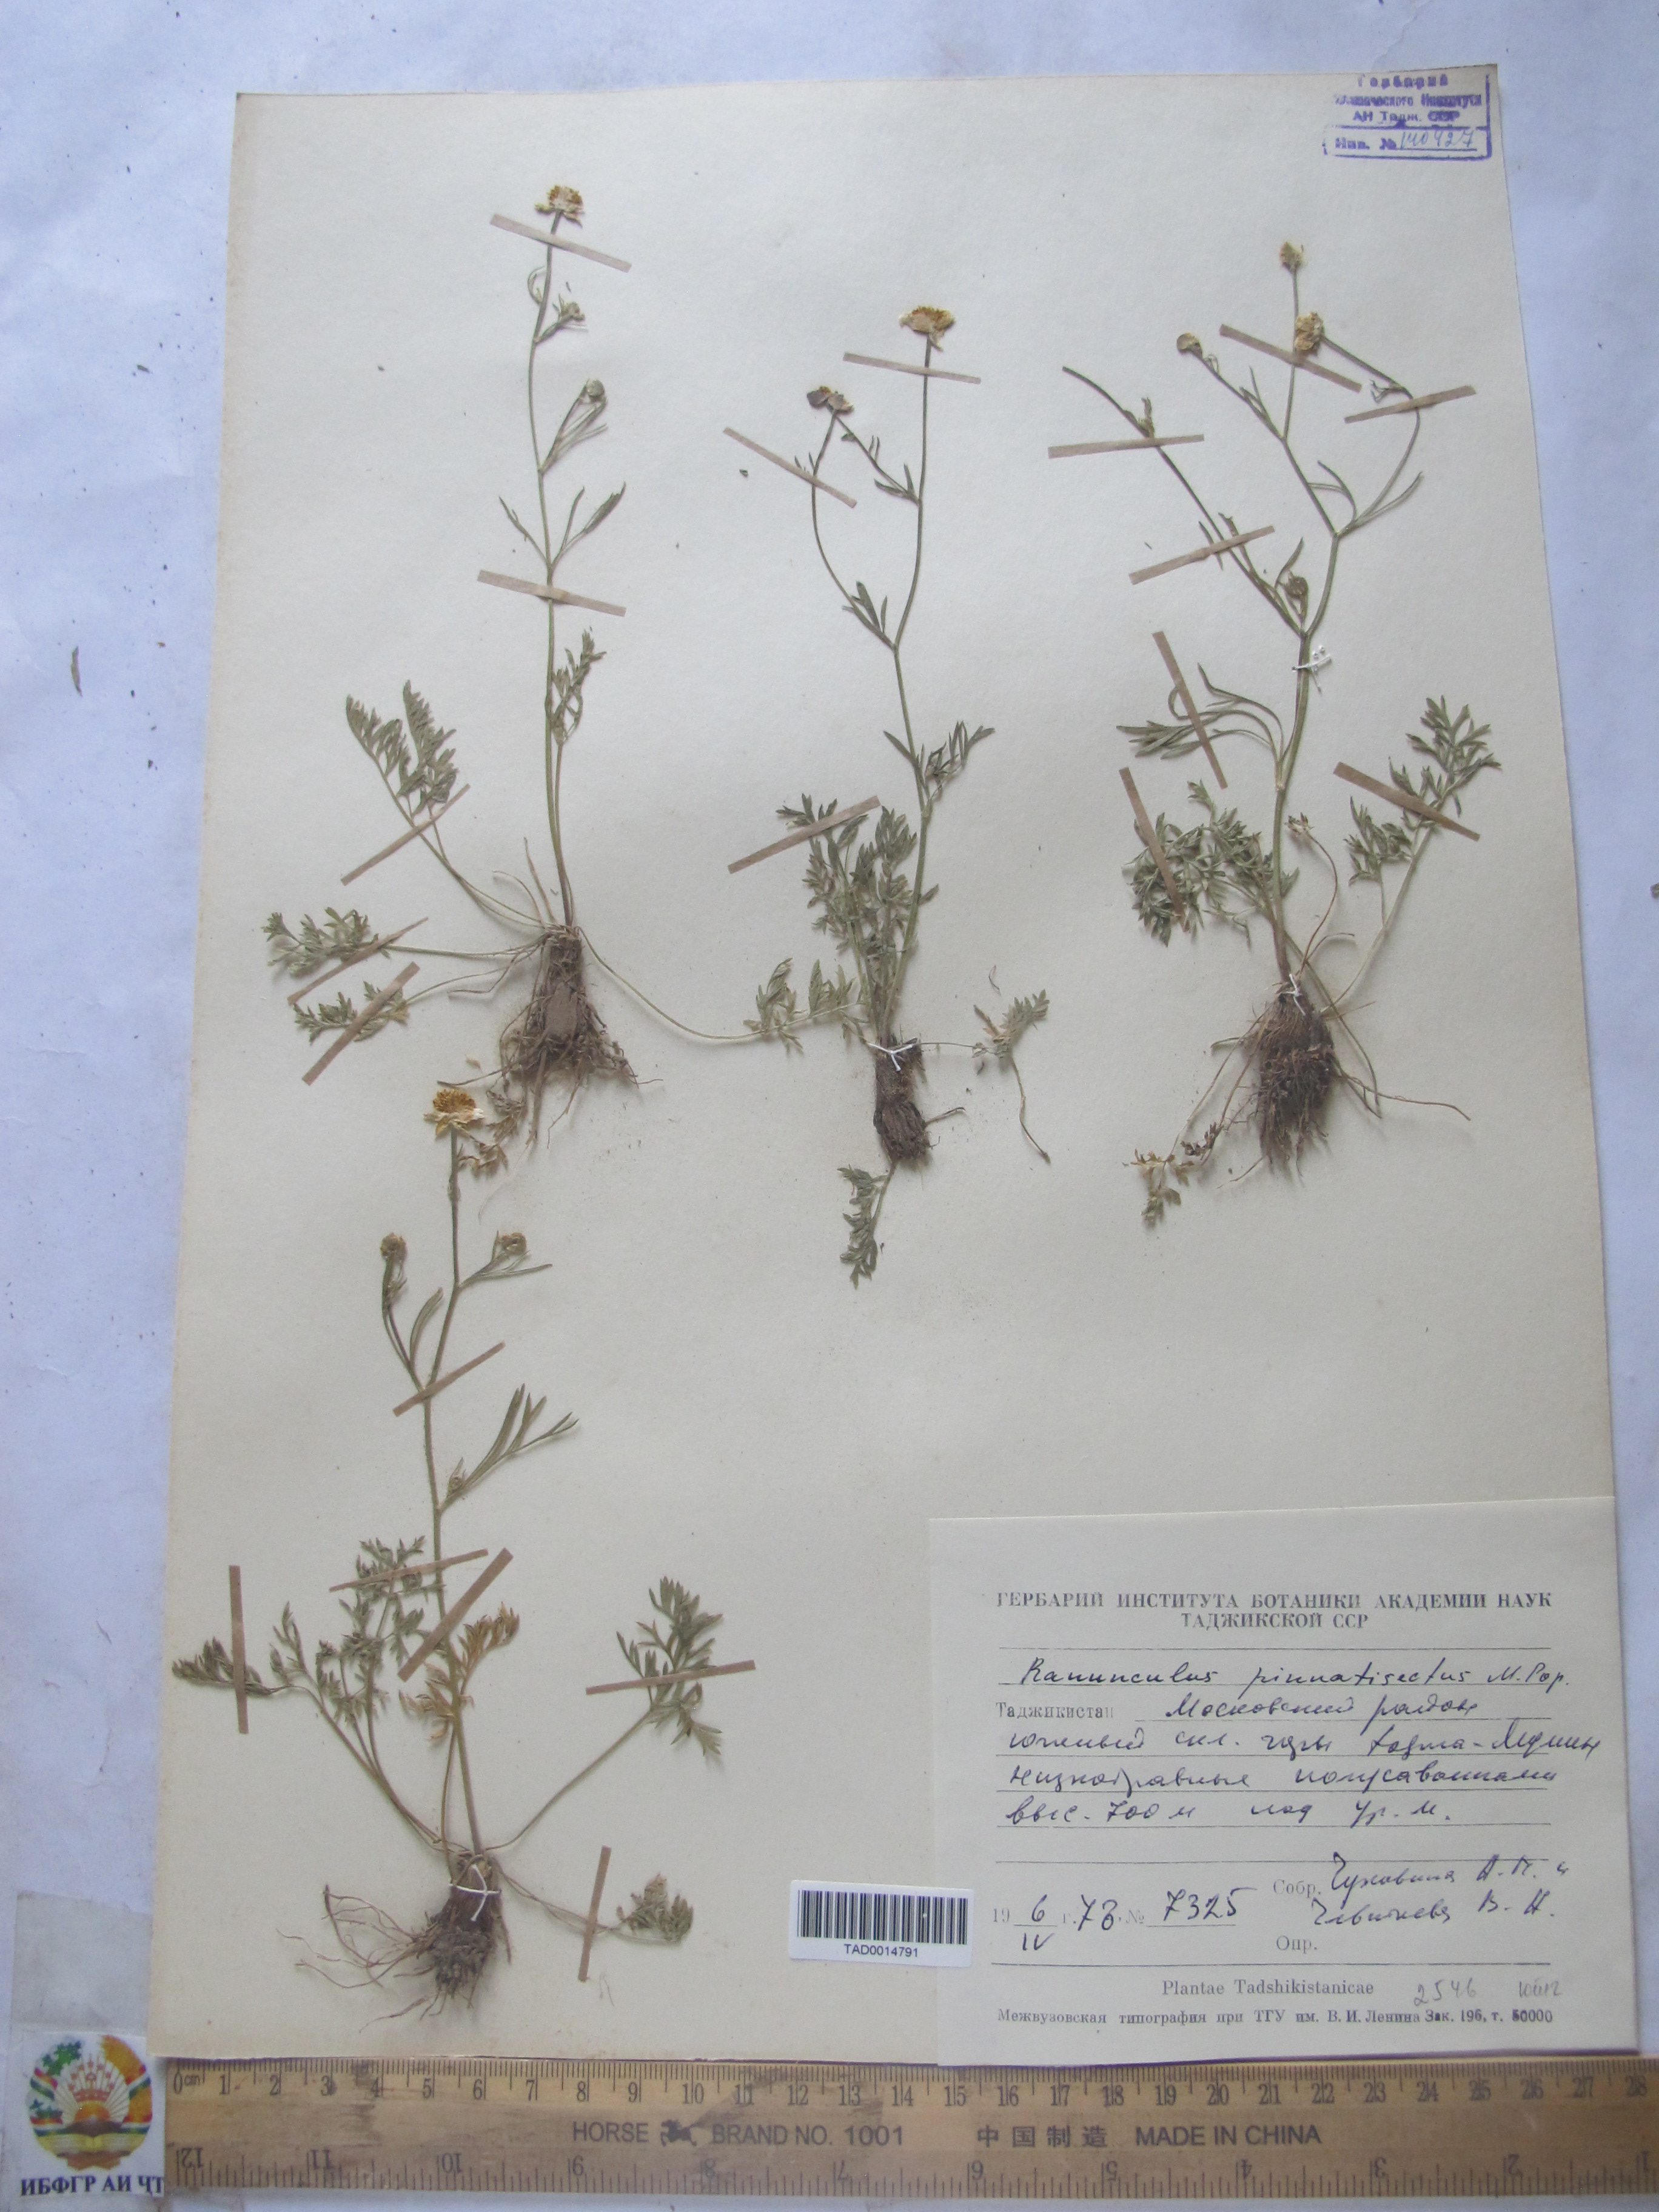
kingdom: Plantae
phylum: Tracheophyta
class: Magnoliopsida
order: Ranunculales
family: Ranunculaceae
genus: Ranunculus
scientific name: Ranunculus pinnatisectus
